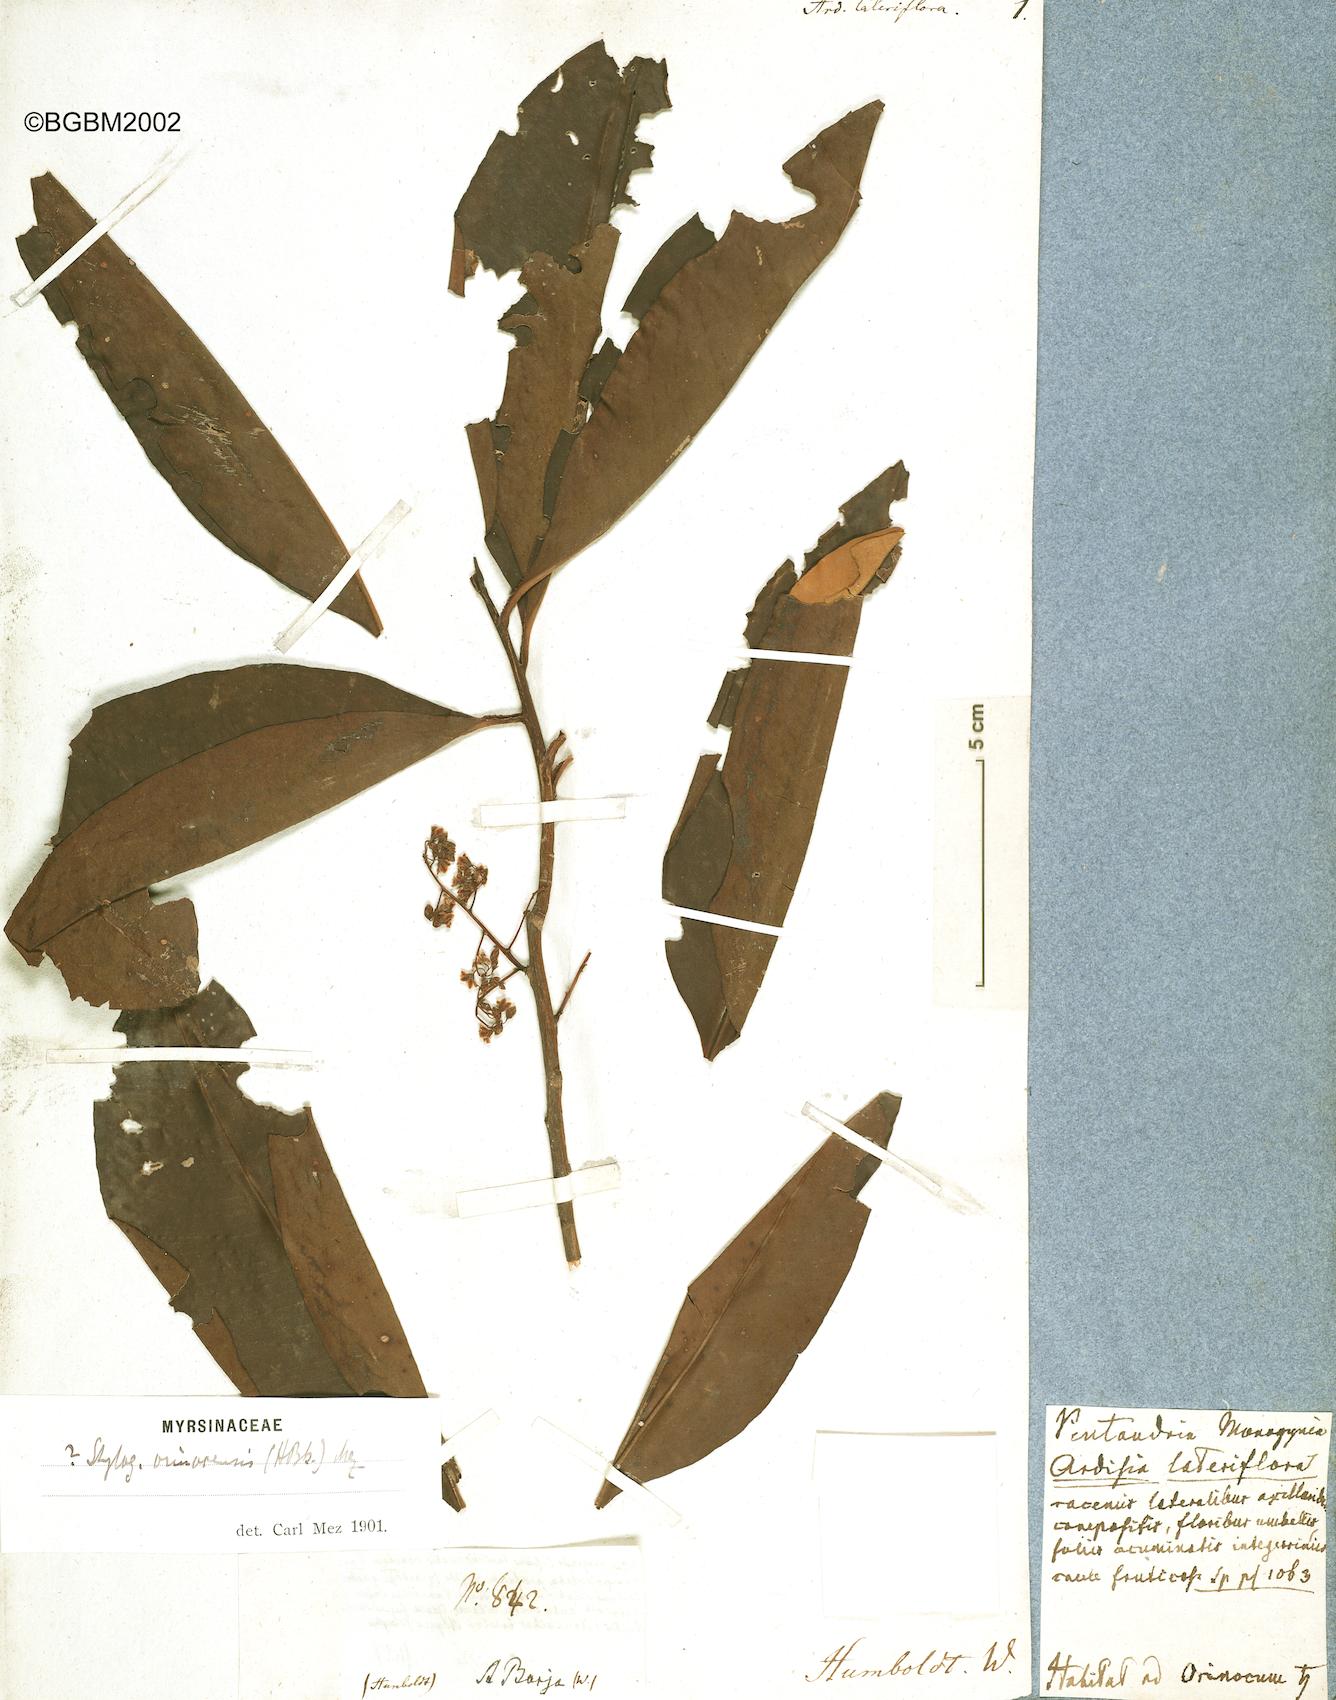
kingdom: Plantae
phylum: Tracheophyta
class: Magnoliopsida
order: Ericales
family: Primulaceae
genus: Stylogyne
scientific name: Stylogyne lateriflora
